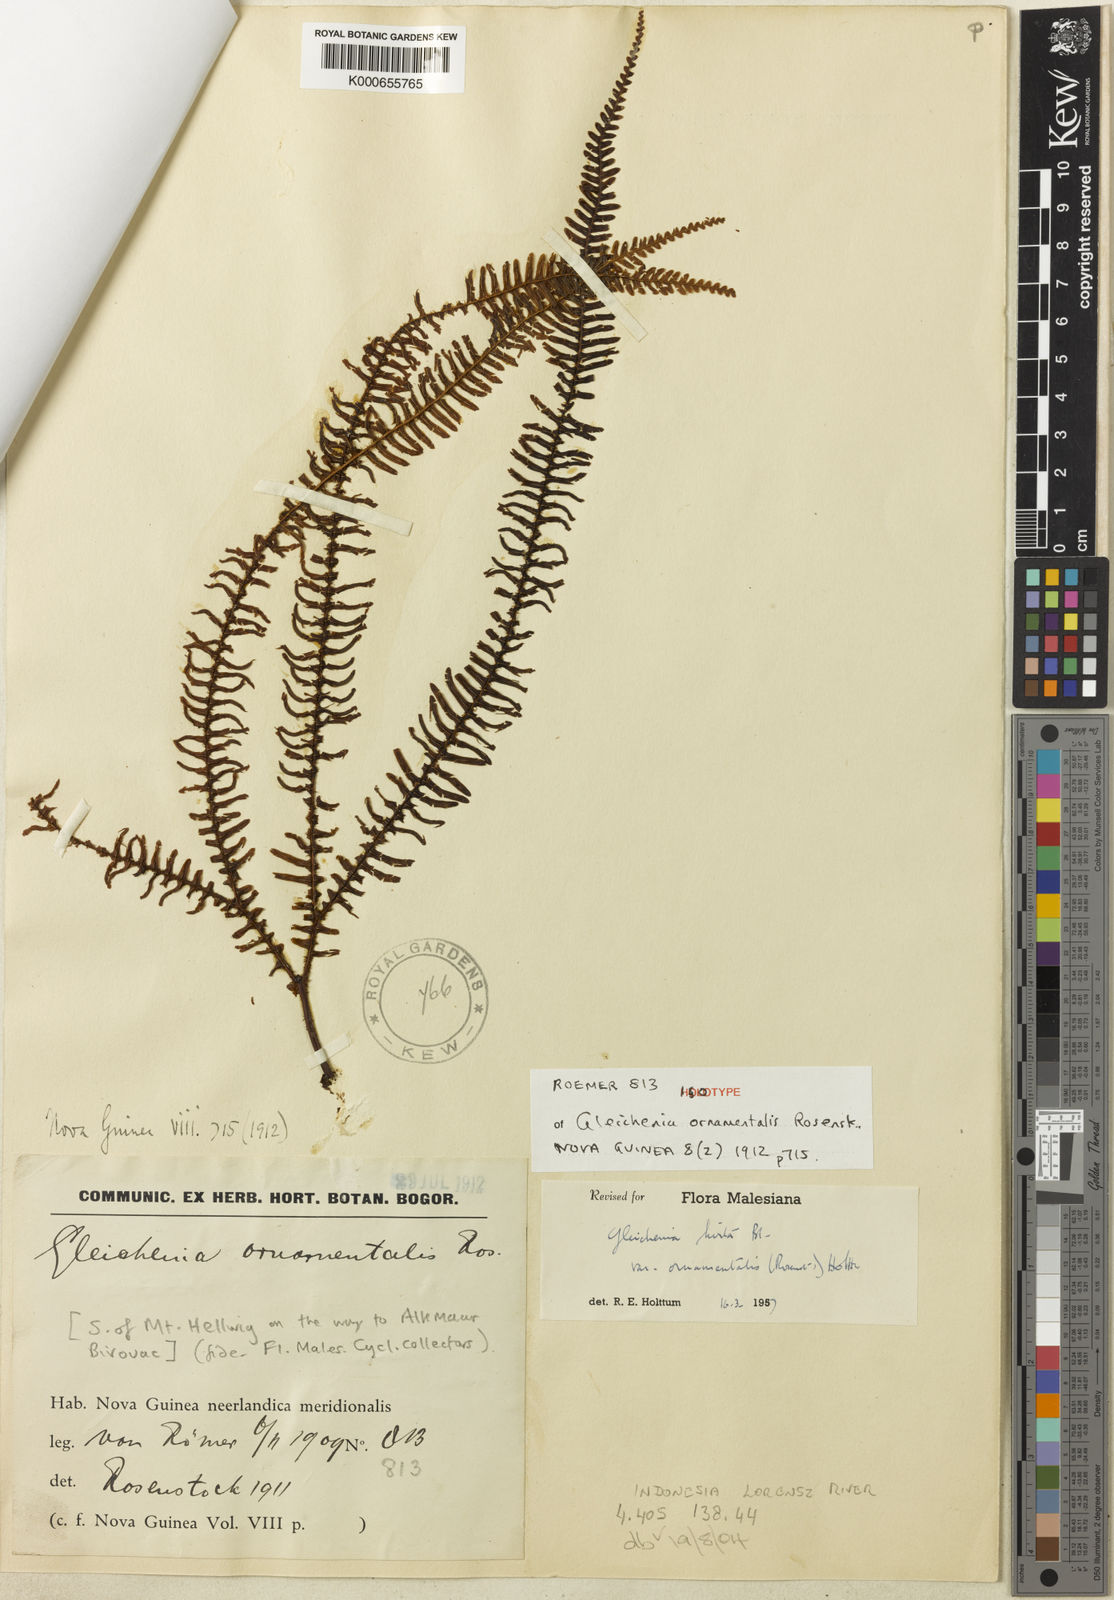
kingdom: Plantae
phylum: Tracheophyta
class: Polypodiopsida
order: Gleicheniales
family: Gleicheniaceae
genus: Sticherus
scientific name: Sticherus hirtus
